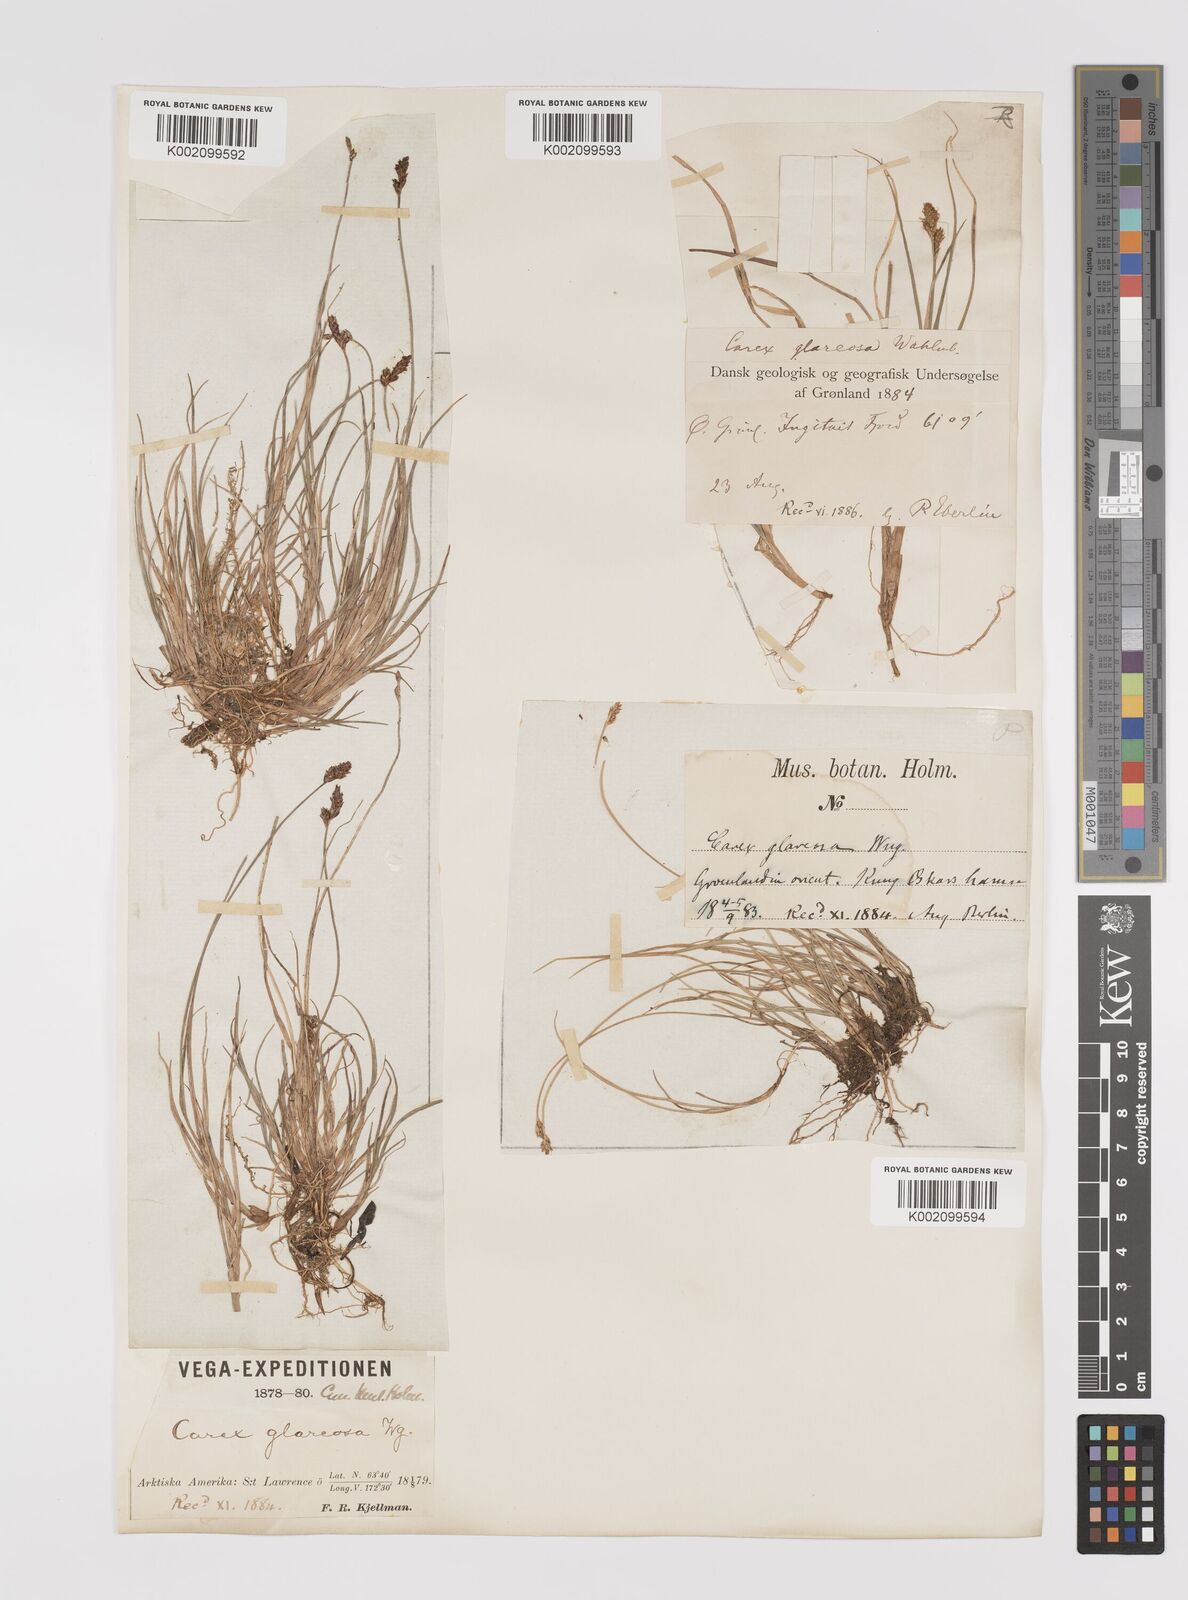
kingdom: Plantae
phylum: Tracheophyta
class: Liliopsida
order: Poales
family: Cyperaceae
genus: Carex
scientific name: Carex glareosa
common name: Clustered sedge
